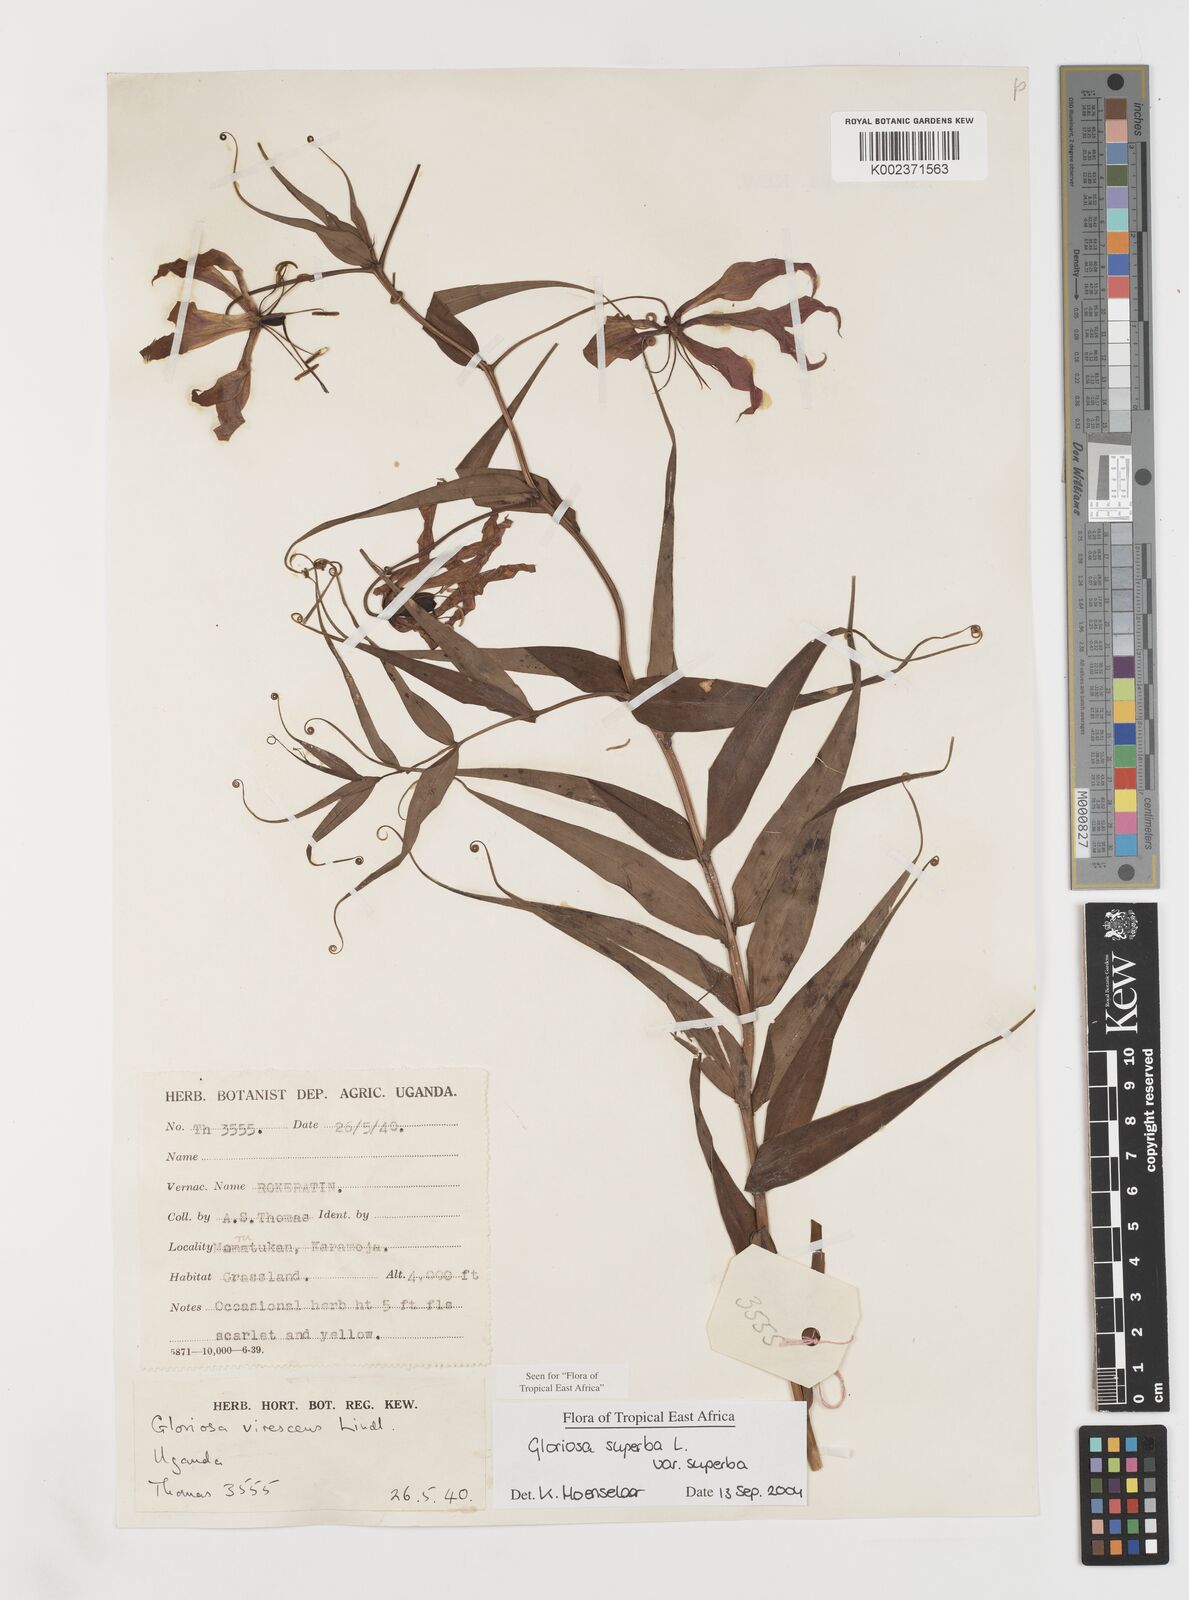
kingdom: Plantae
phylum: Tracheophyta
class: Liliopsida
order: Liliales
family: Colchicaceae
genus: Gloriosa
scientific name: Gloriosa simplex
